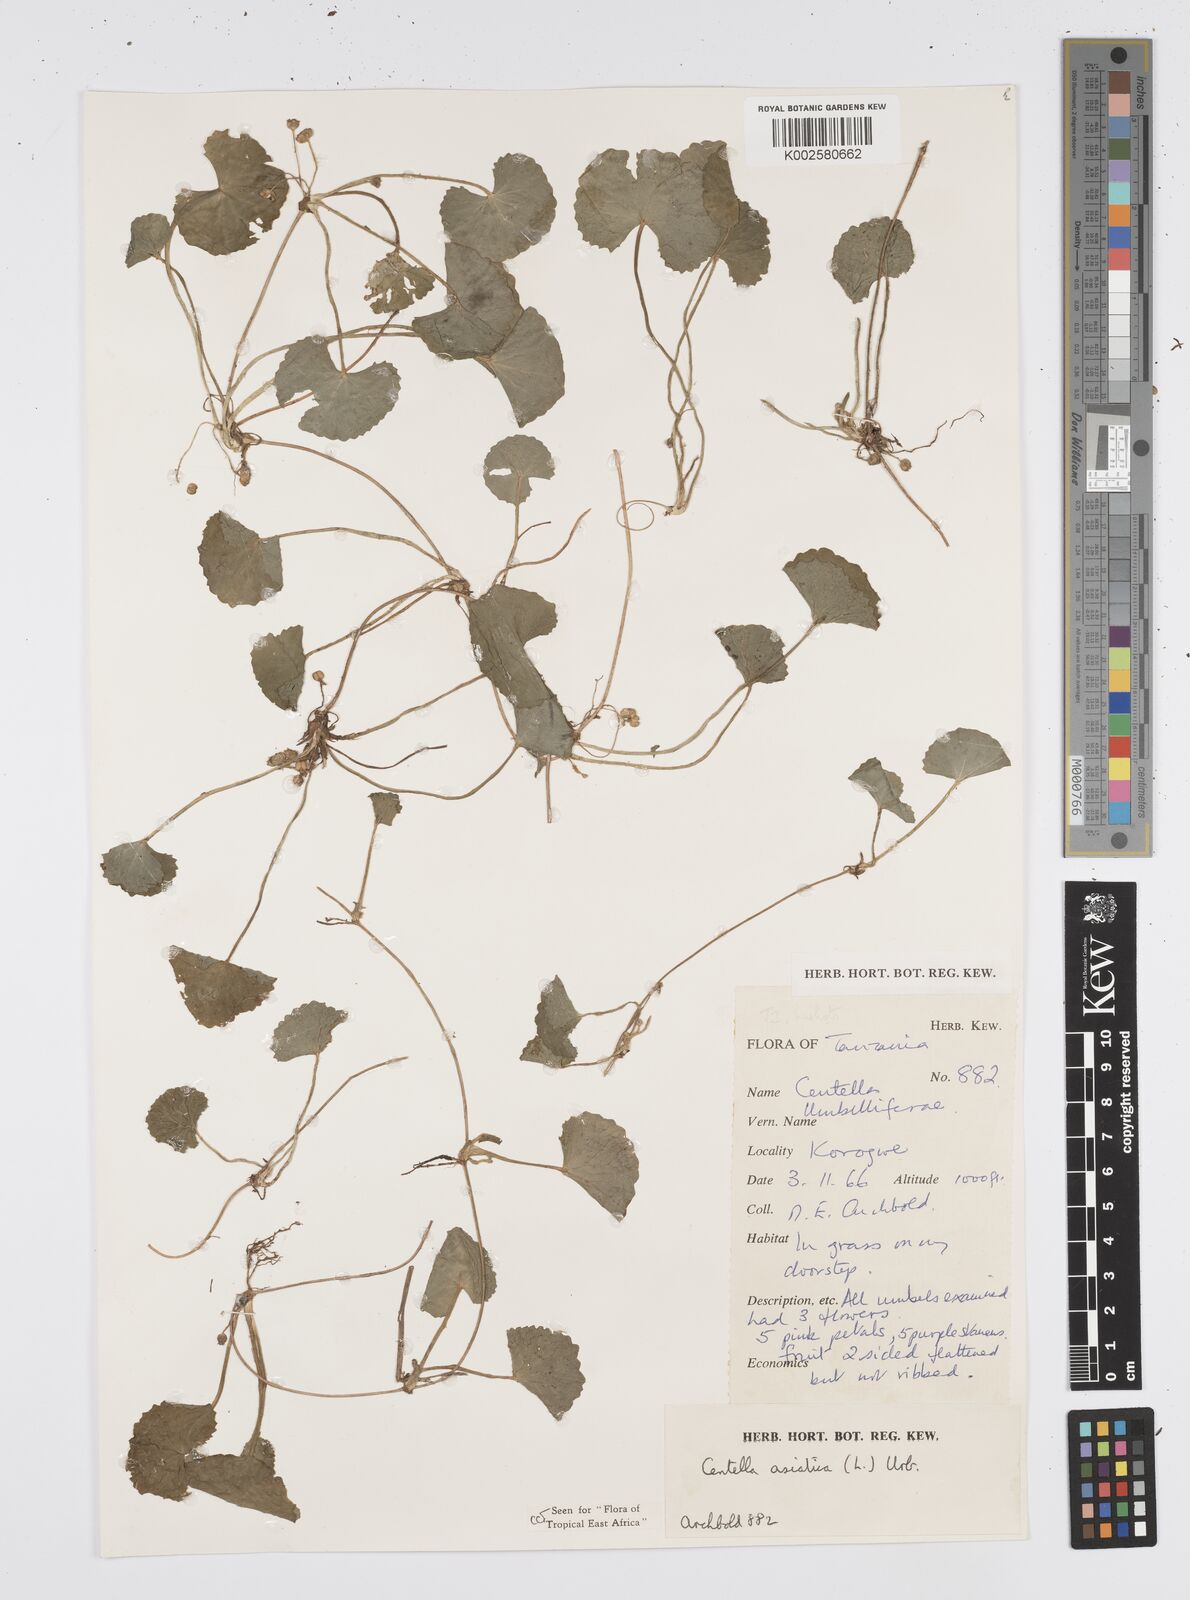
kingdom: Plantae
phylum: Tracheophyta
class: Magnoliopsida
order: Apiales
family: Apiaceae
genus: Centella
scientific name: Centella asiatica
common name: Spadeleaf
